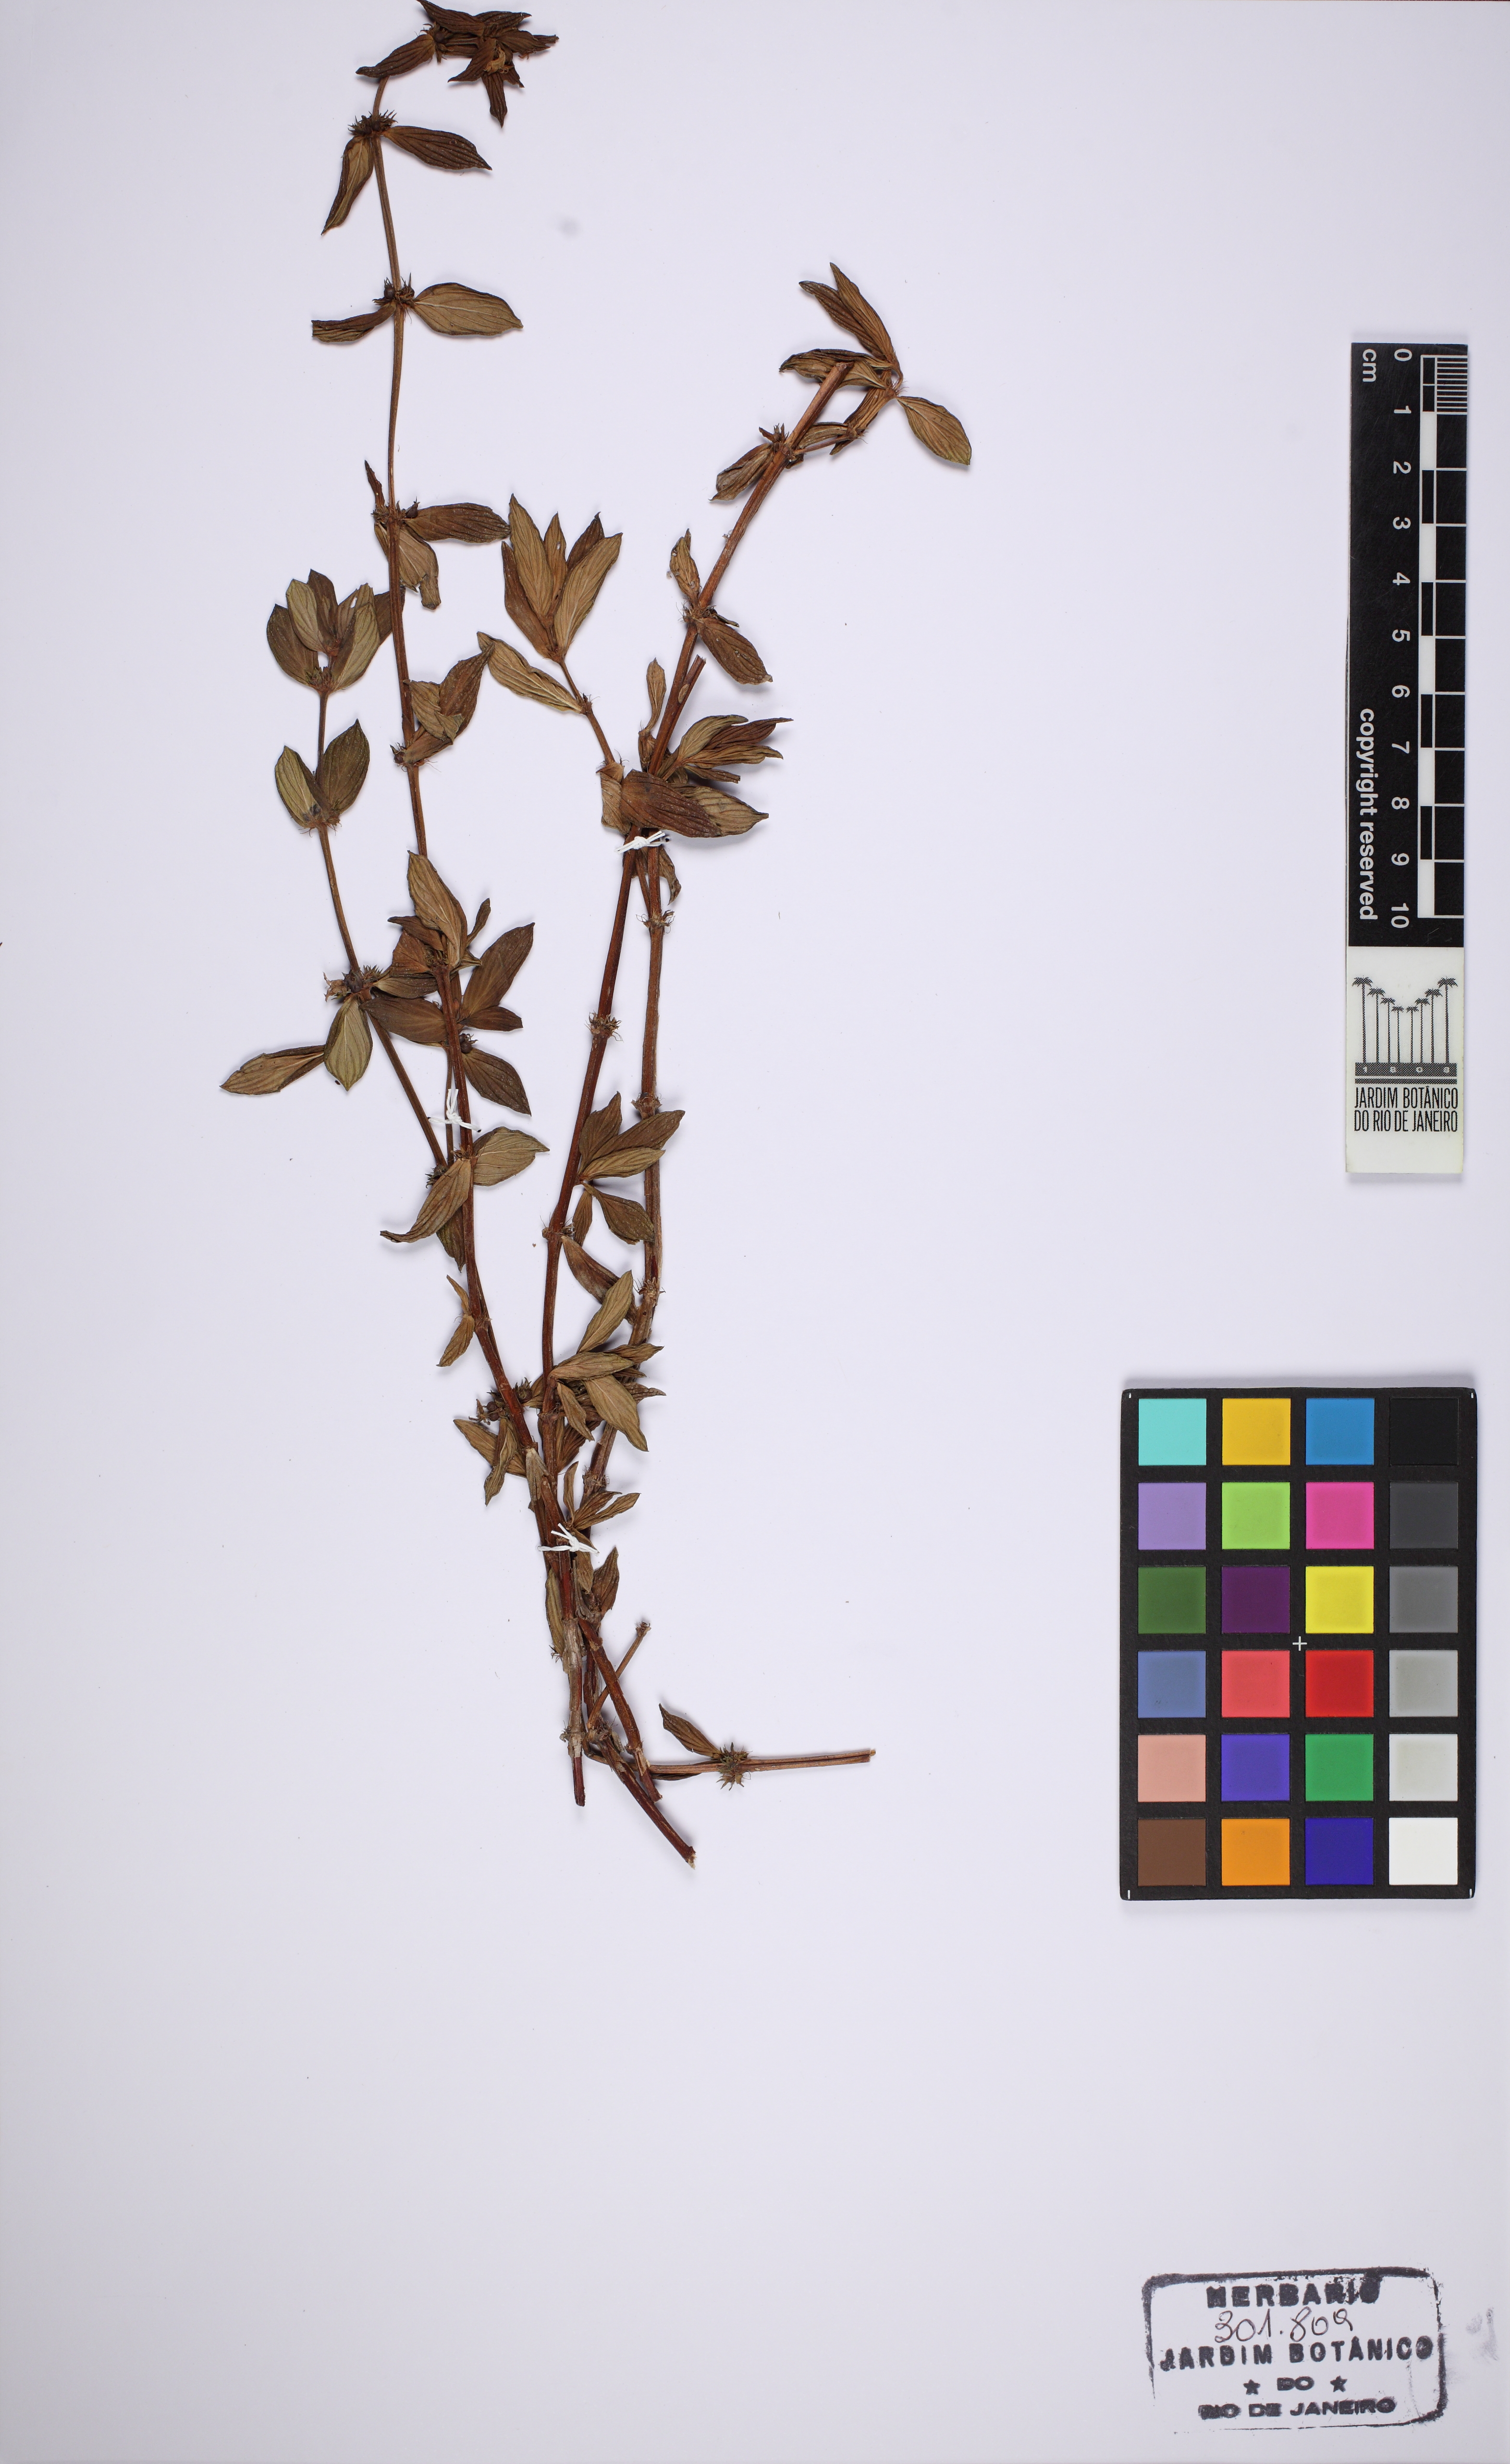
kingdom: Plantae
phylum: Tracheophyta
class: Magnoliopsida
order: Gentianales
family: Rubiaceae
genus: Hexasepalum
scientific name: Hexasepalum radulum
